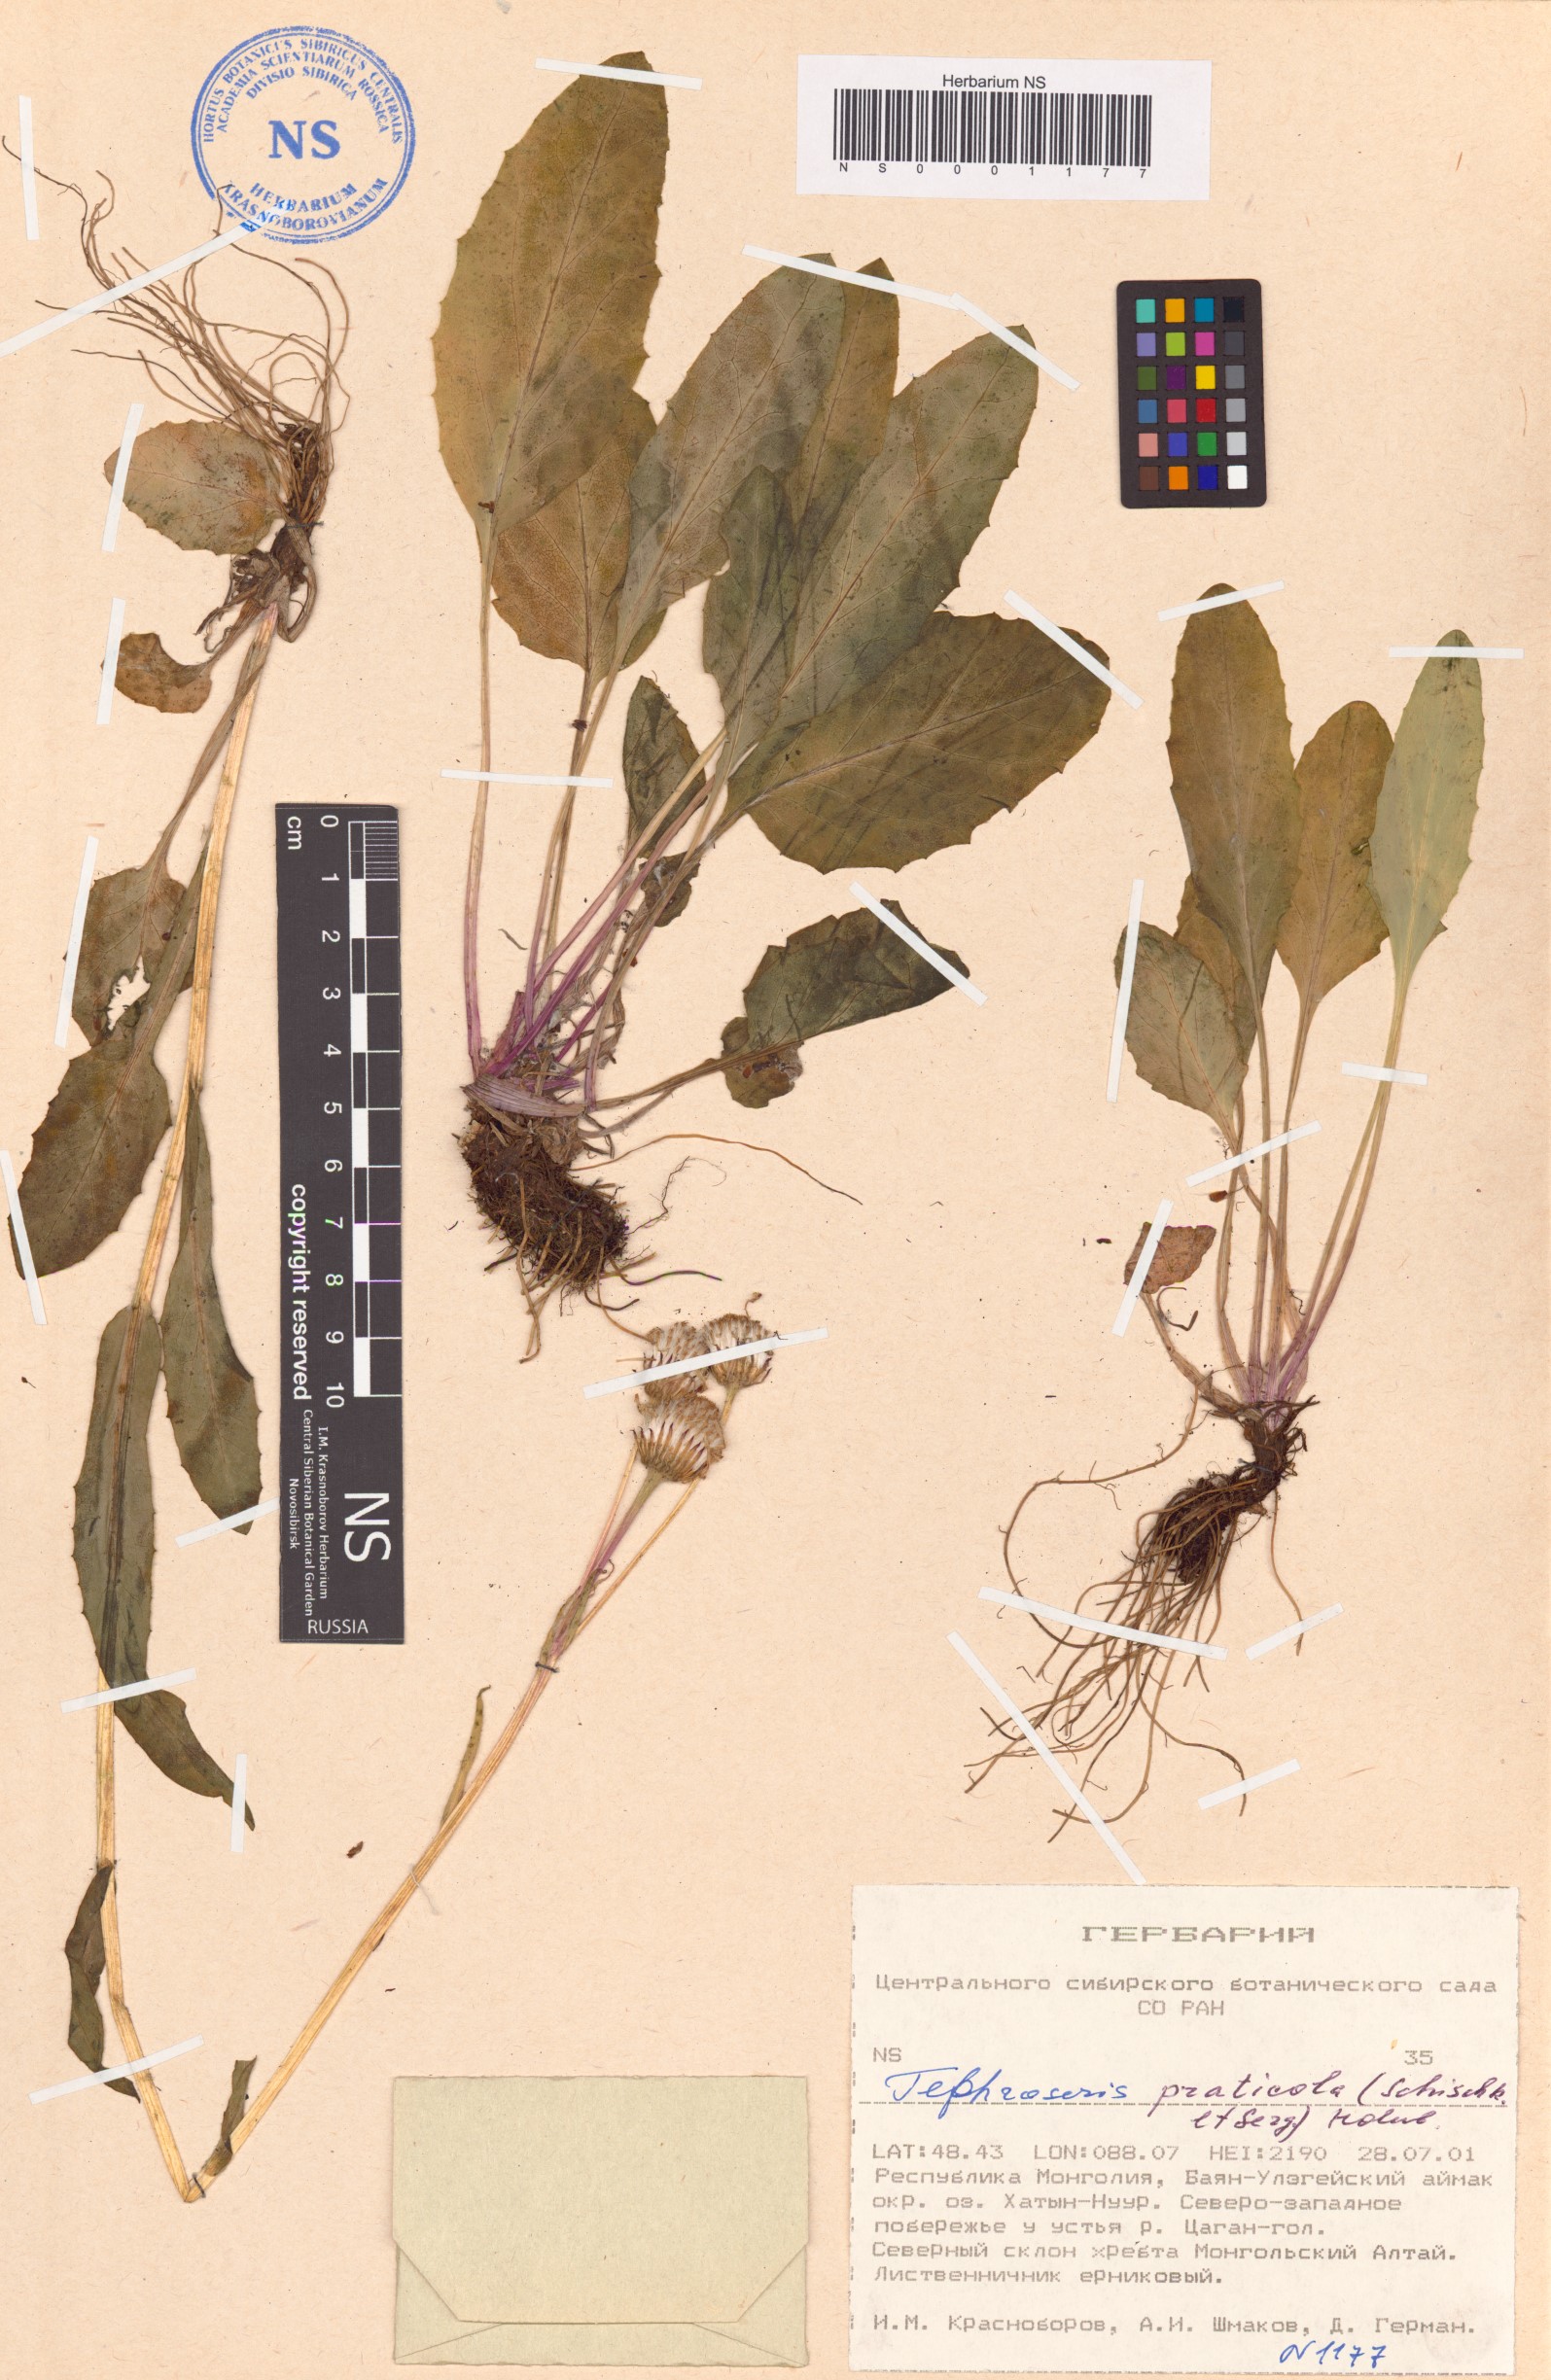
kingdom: Plantae
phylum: Tracheophyta
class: Magnoliopsida
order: Asterales
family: Asteraceae
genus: Tephroseris
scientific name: Tephroseris praticola
